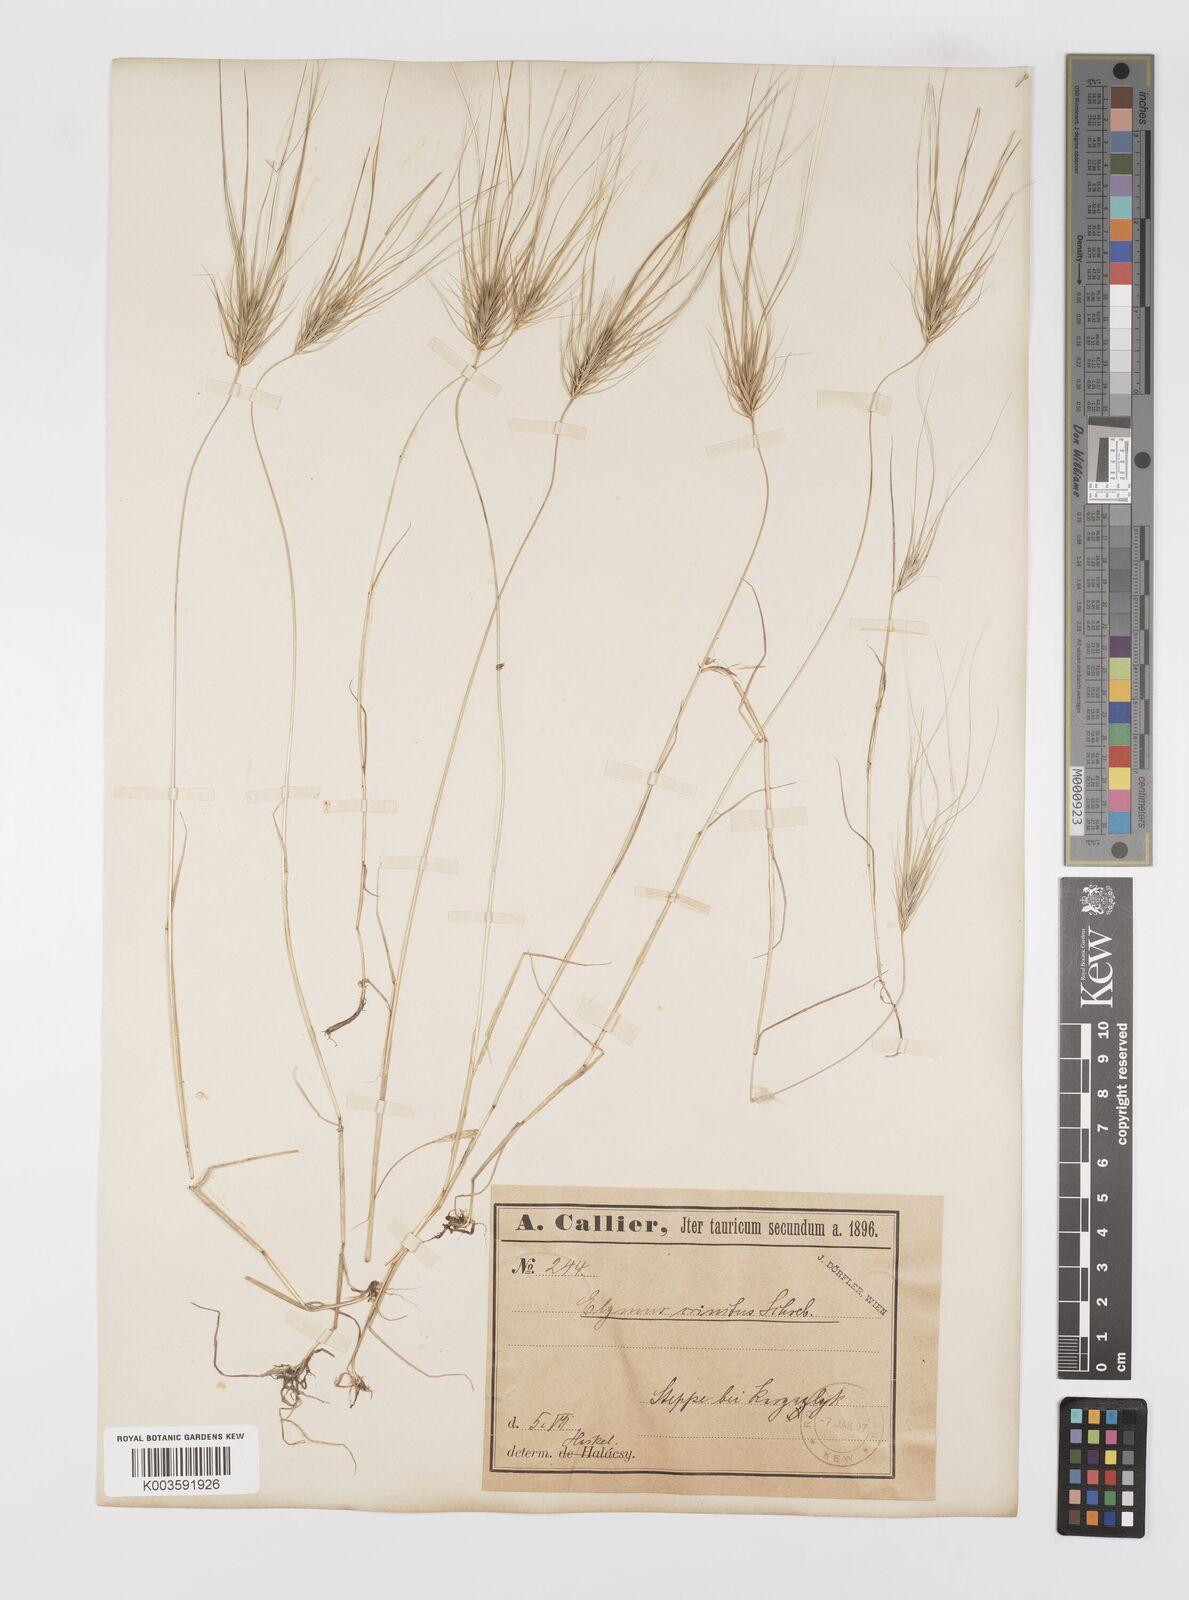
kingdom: Plantae
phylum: Tracheophyta
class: Liliopsida
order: Poales
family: Poaceae
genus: Taeniatherum
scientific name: Taeniatherum caput-medusae
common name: Medusahead
